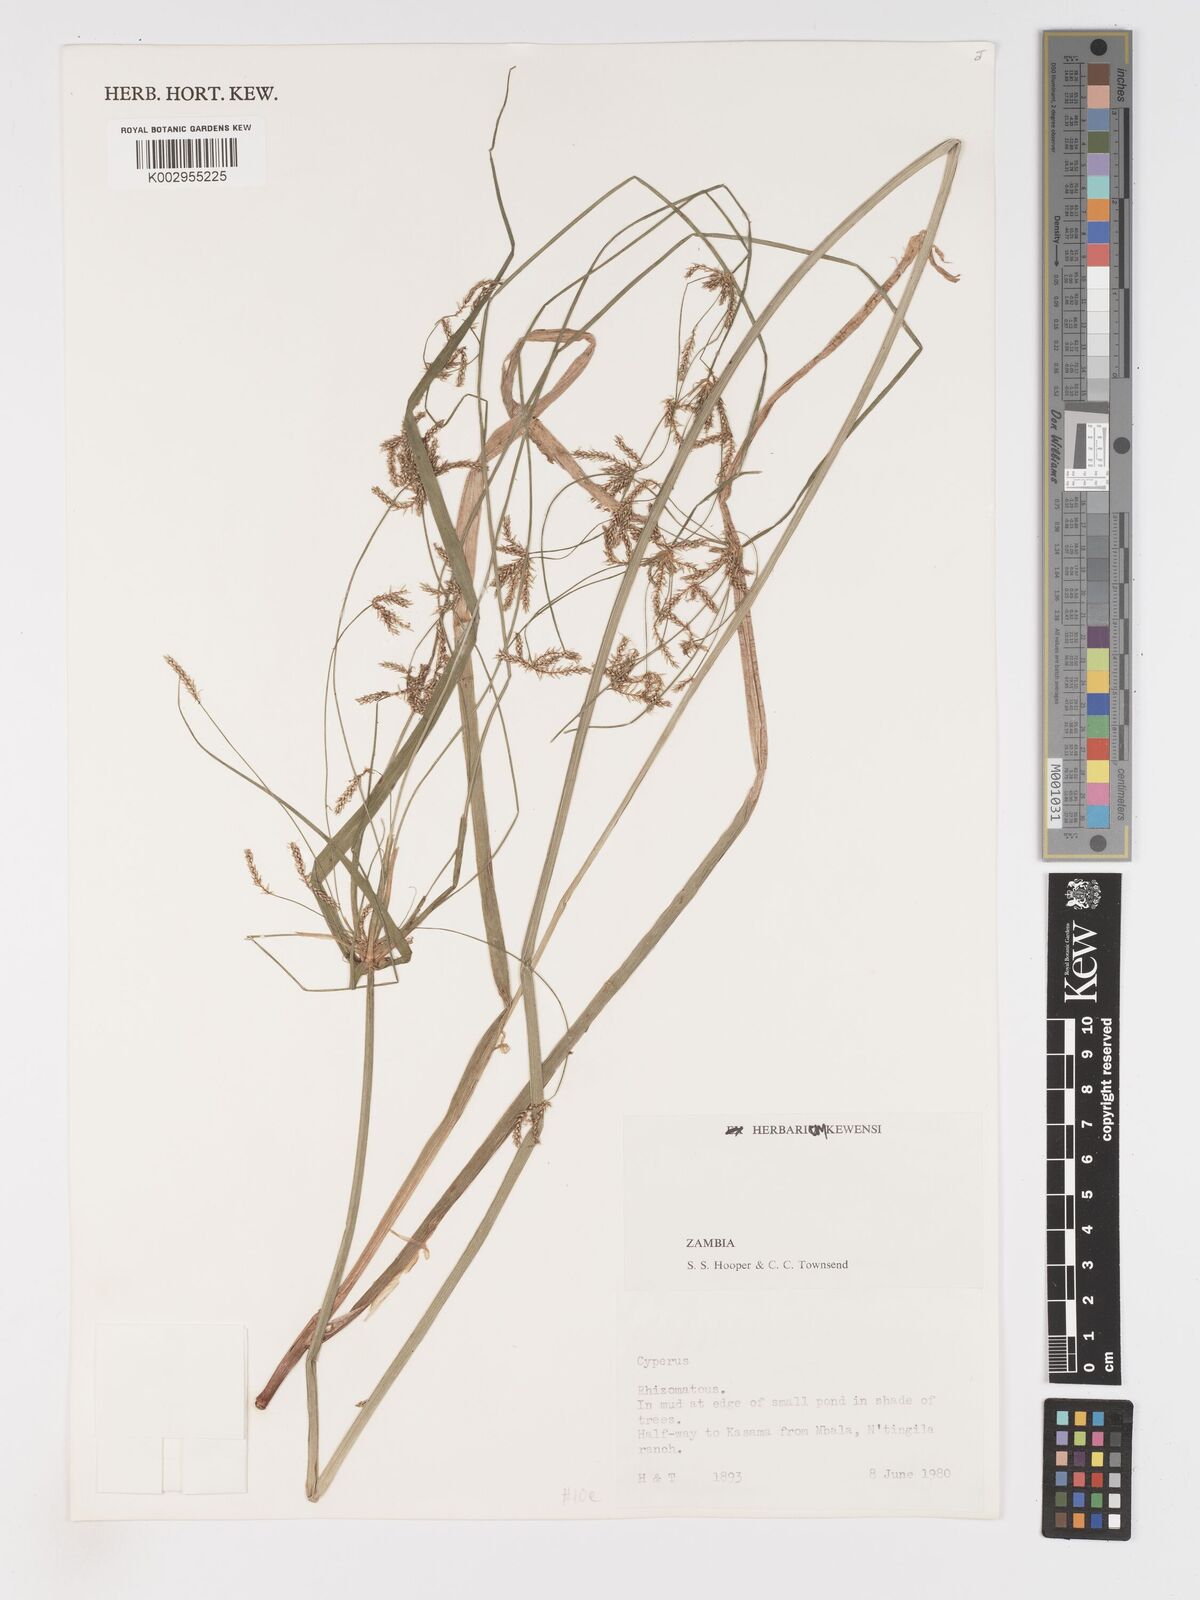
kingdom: Plantae
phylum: Tracheophyta
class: Liliopsida
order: Poales
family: Cyperaceae
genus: Cyperus
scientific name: Cyperus
